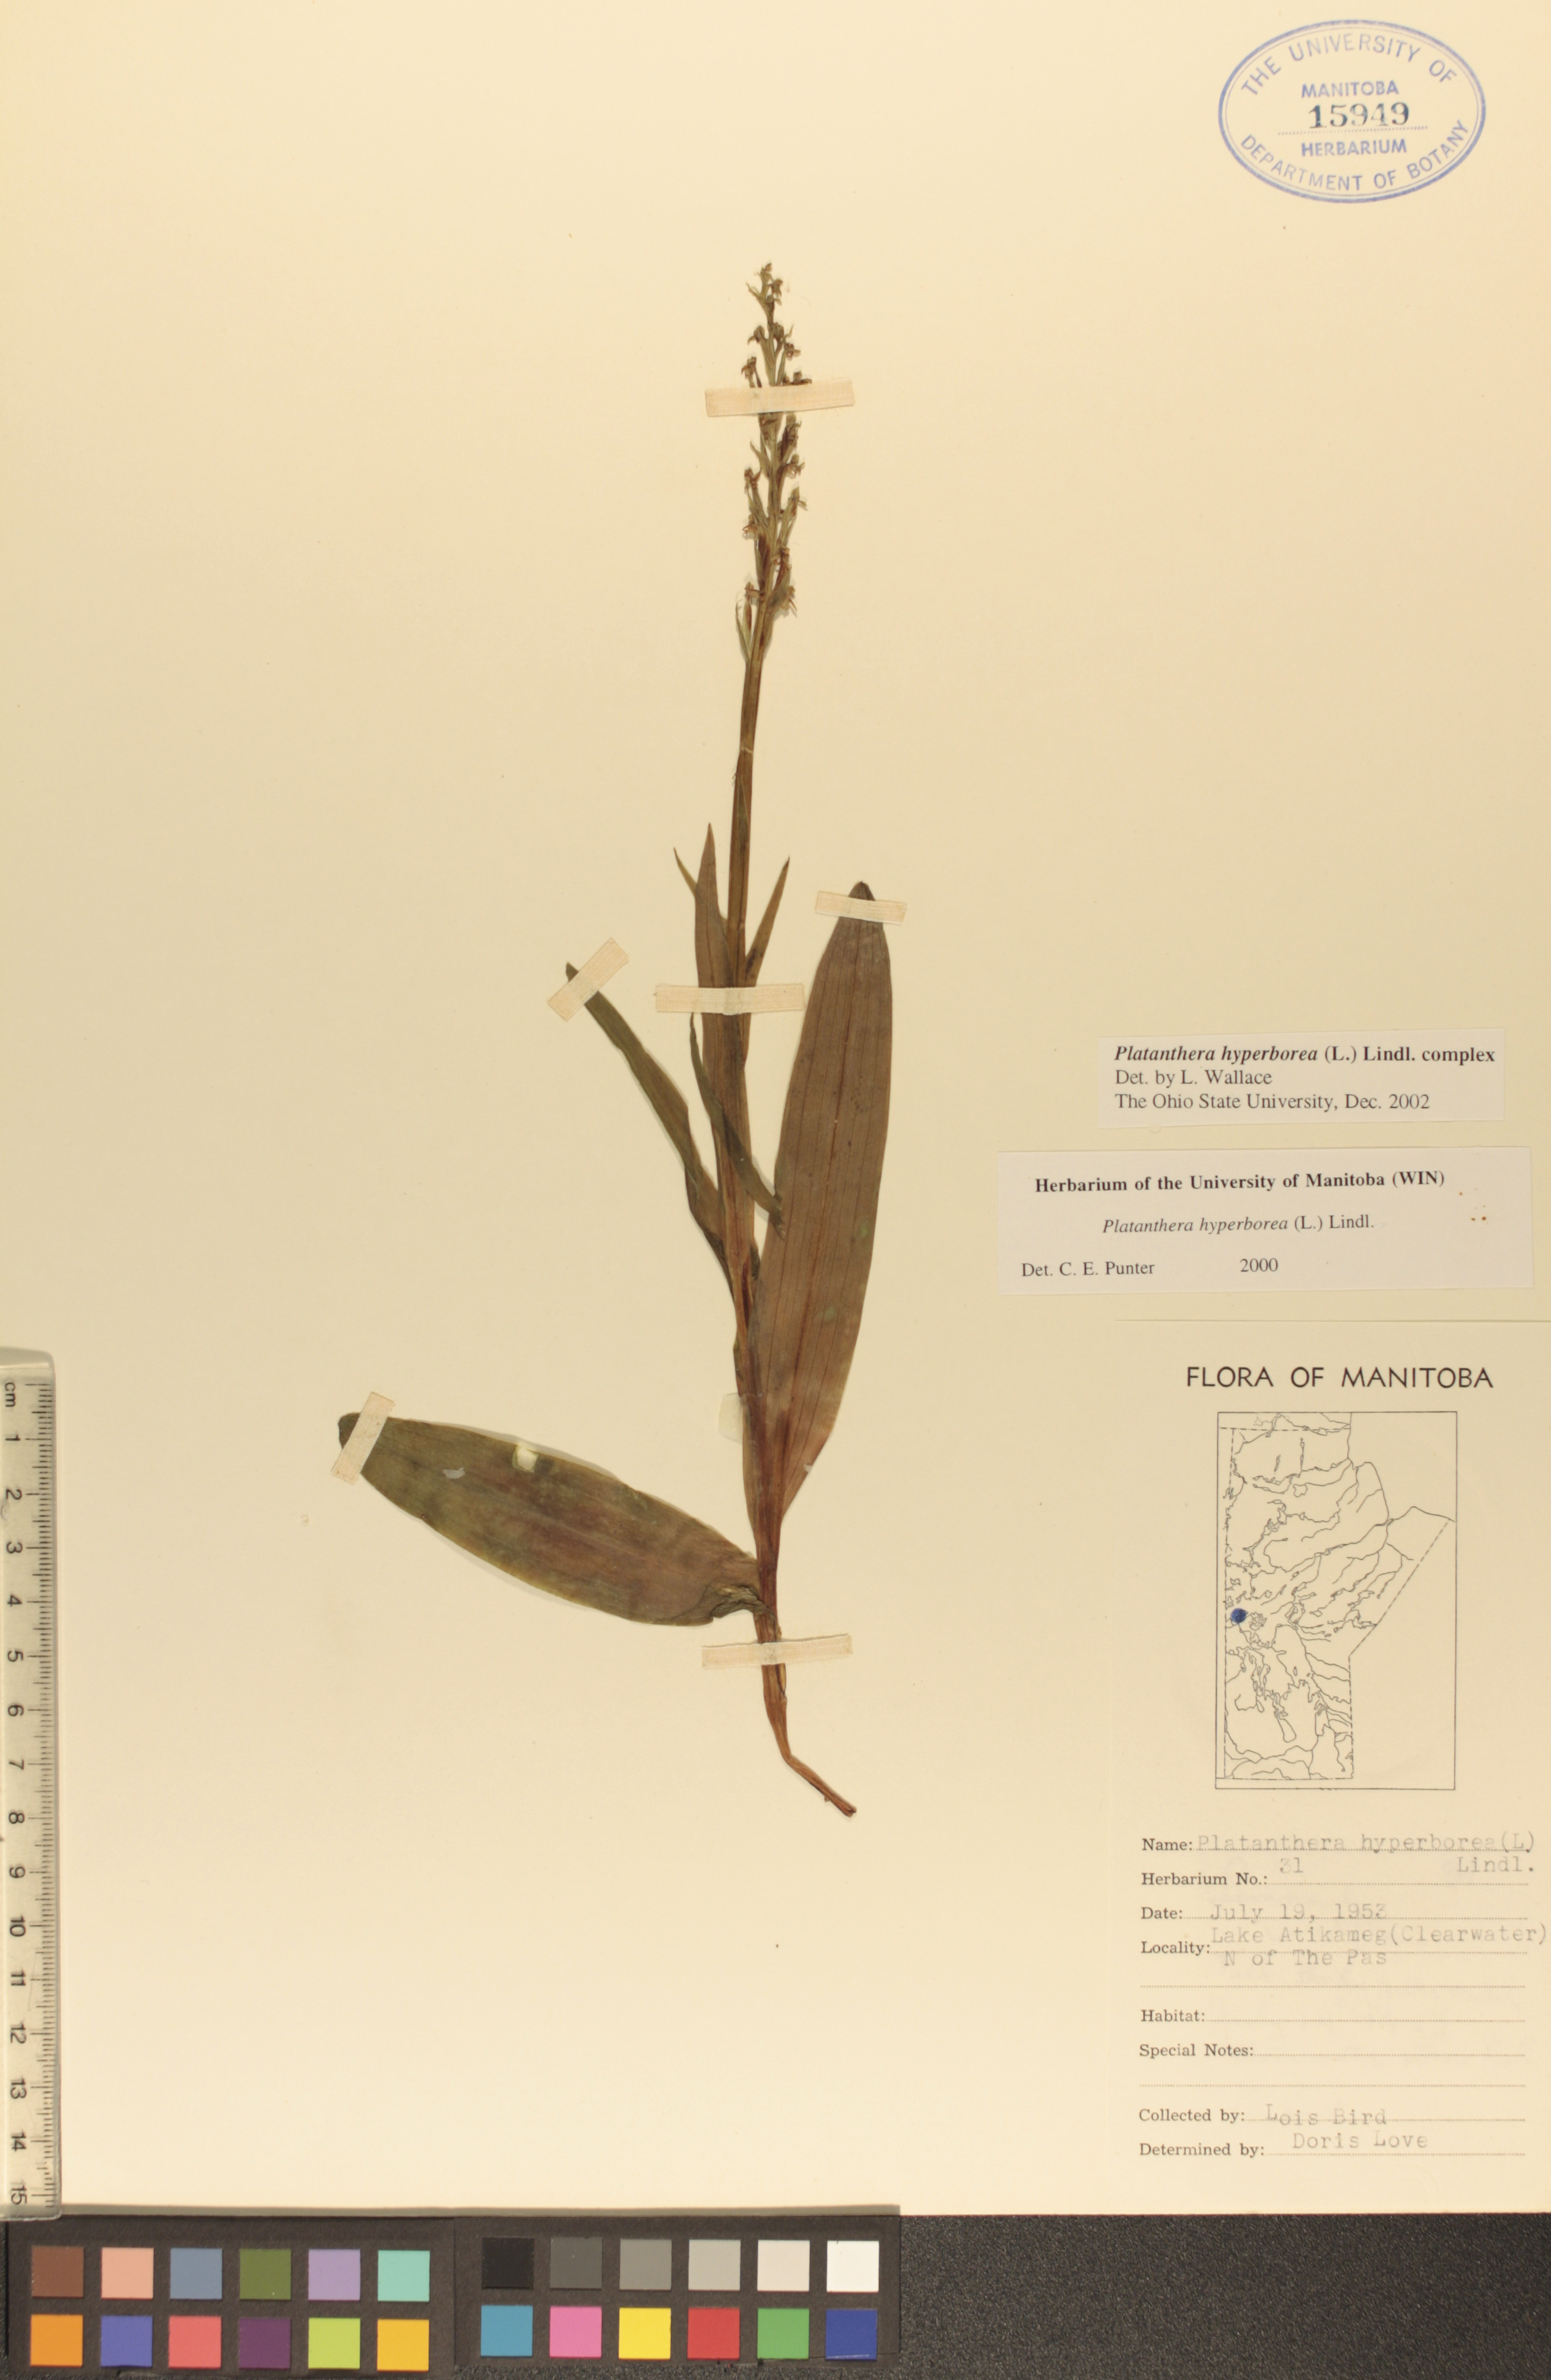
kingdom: Plantae
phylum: Tracheophyta
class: Liliopsida
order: Asparagales
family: Orchidaceae
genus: Platanthera
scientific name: Platanthera hyperborea
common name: Northern green orchid
